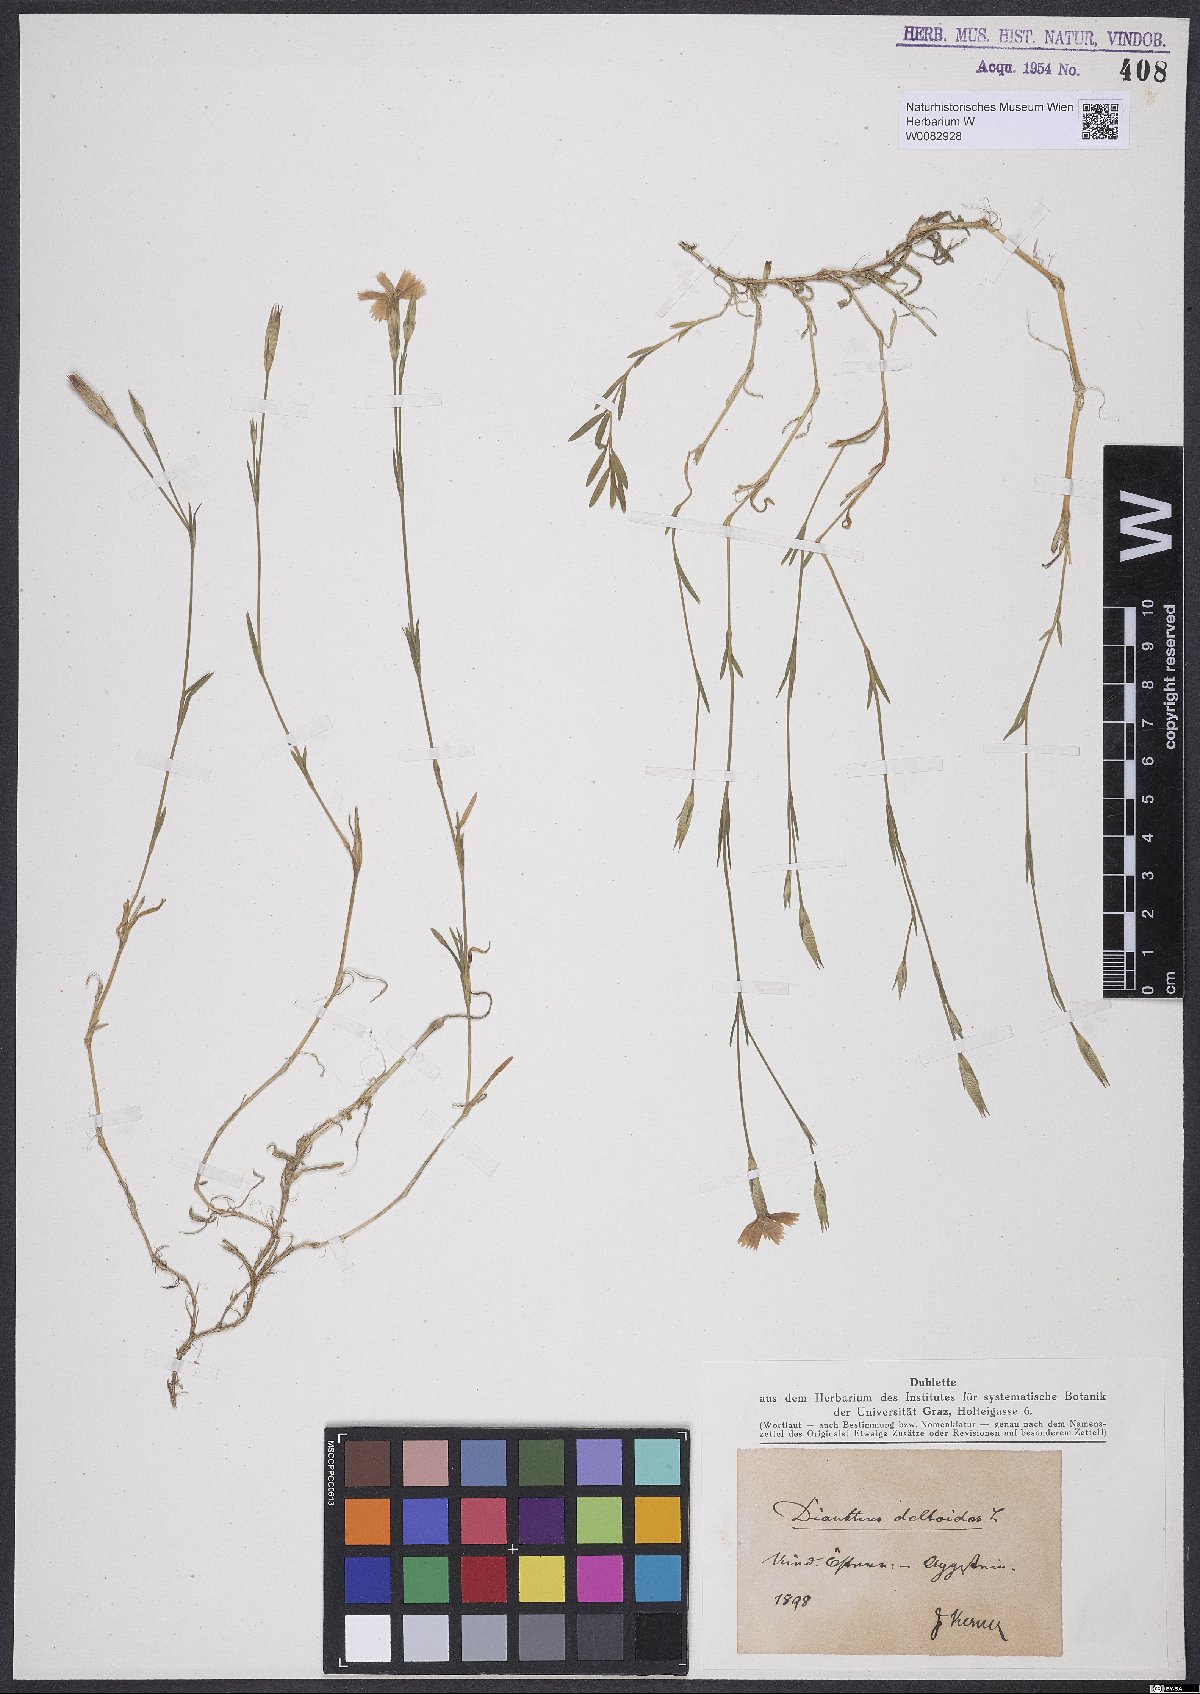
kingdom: Plantae
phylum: Tracheophyta
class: Magnoliopsida
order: Caryophyllales
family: Caryophyllaceae
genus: Dianthus
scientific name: Dianthus deltoides
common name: Maiden pink
